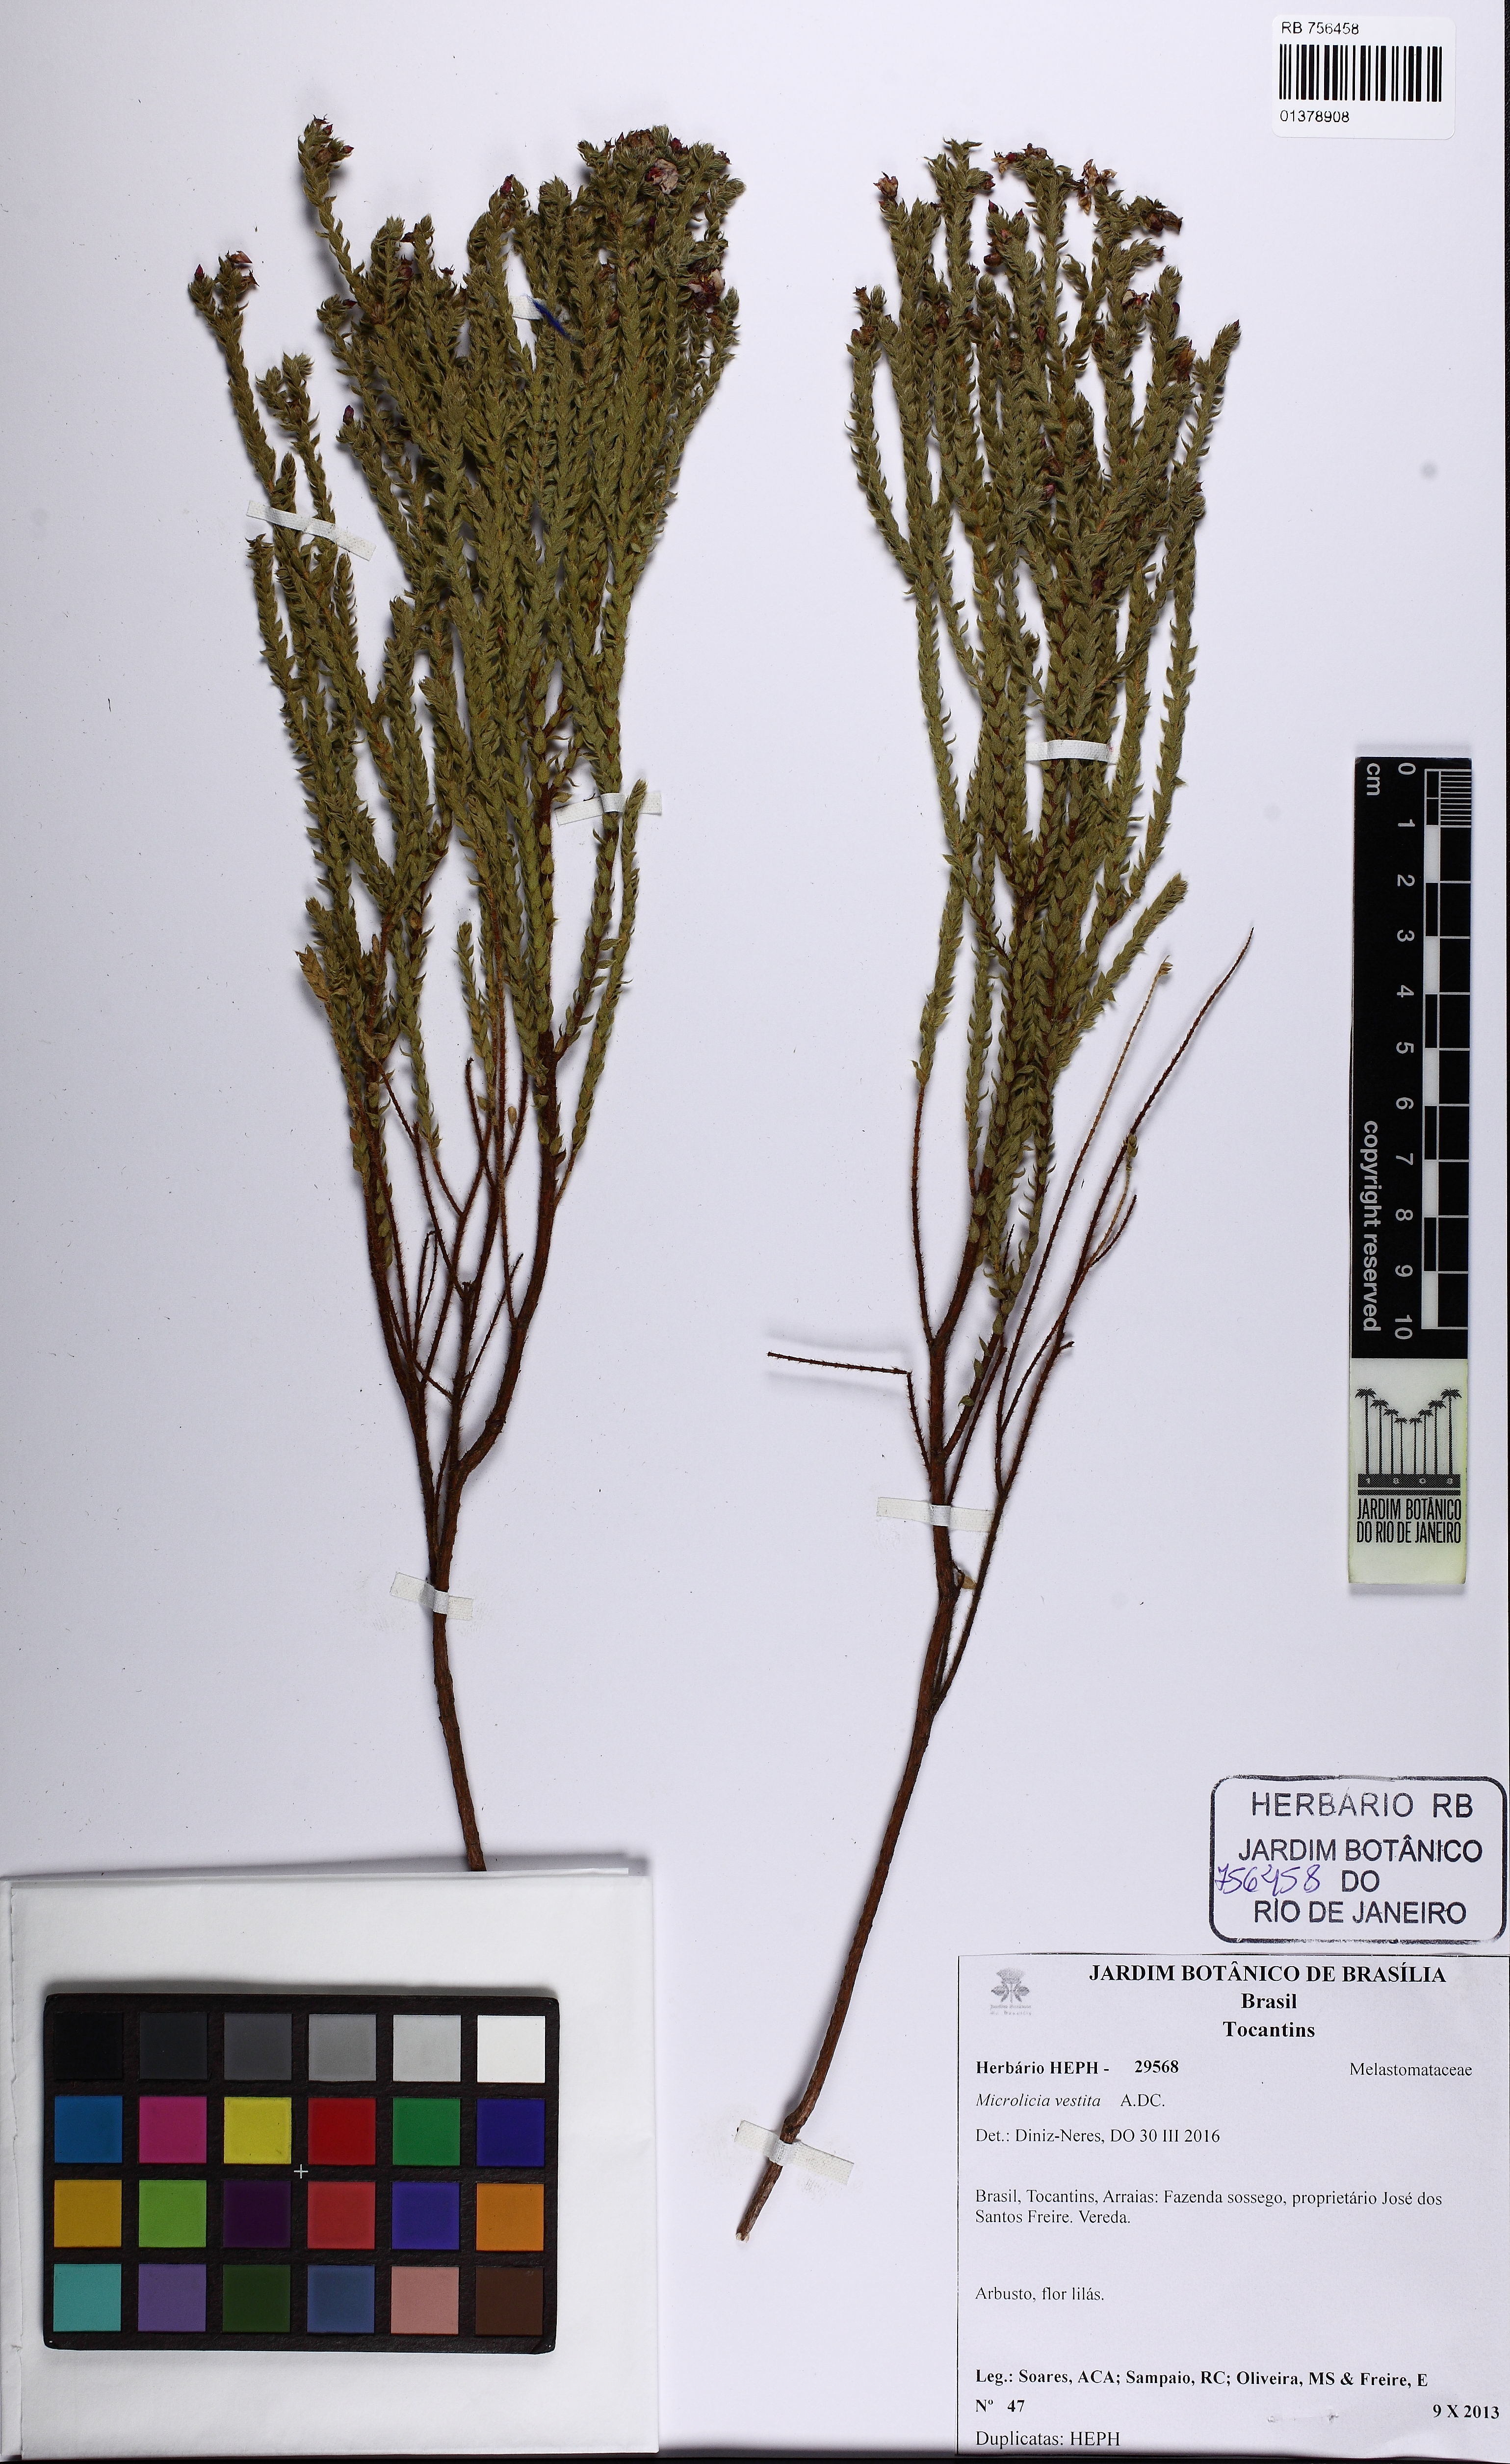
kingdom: Plantae
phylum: Tracheophyta
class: Magnoliopsida
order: Myrtales
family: Melastomataceae
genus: Microlicia
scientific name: Microlicia vestita
